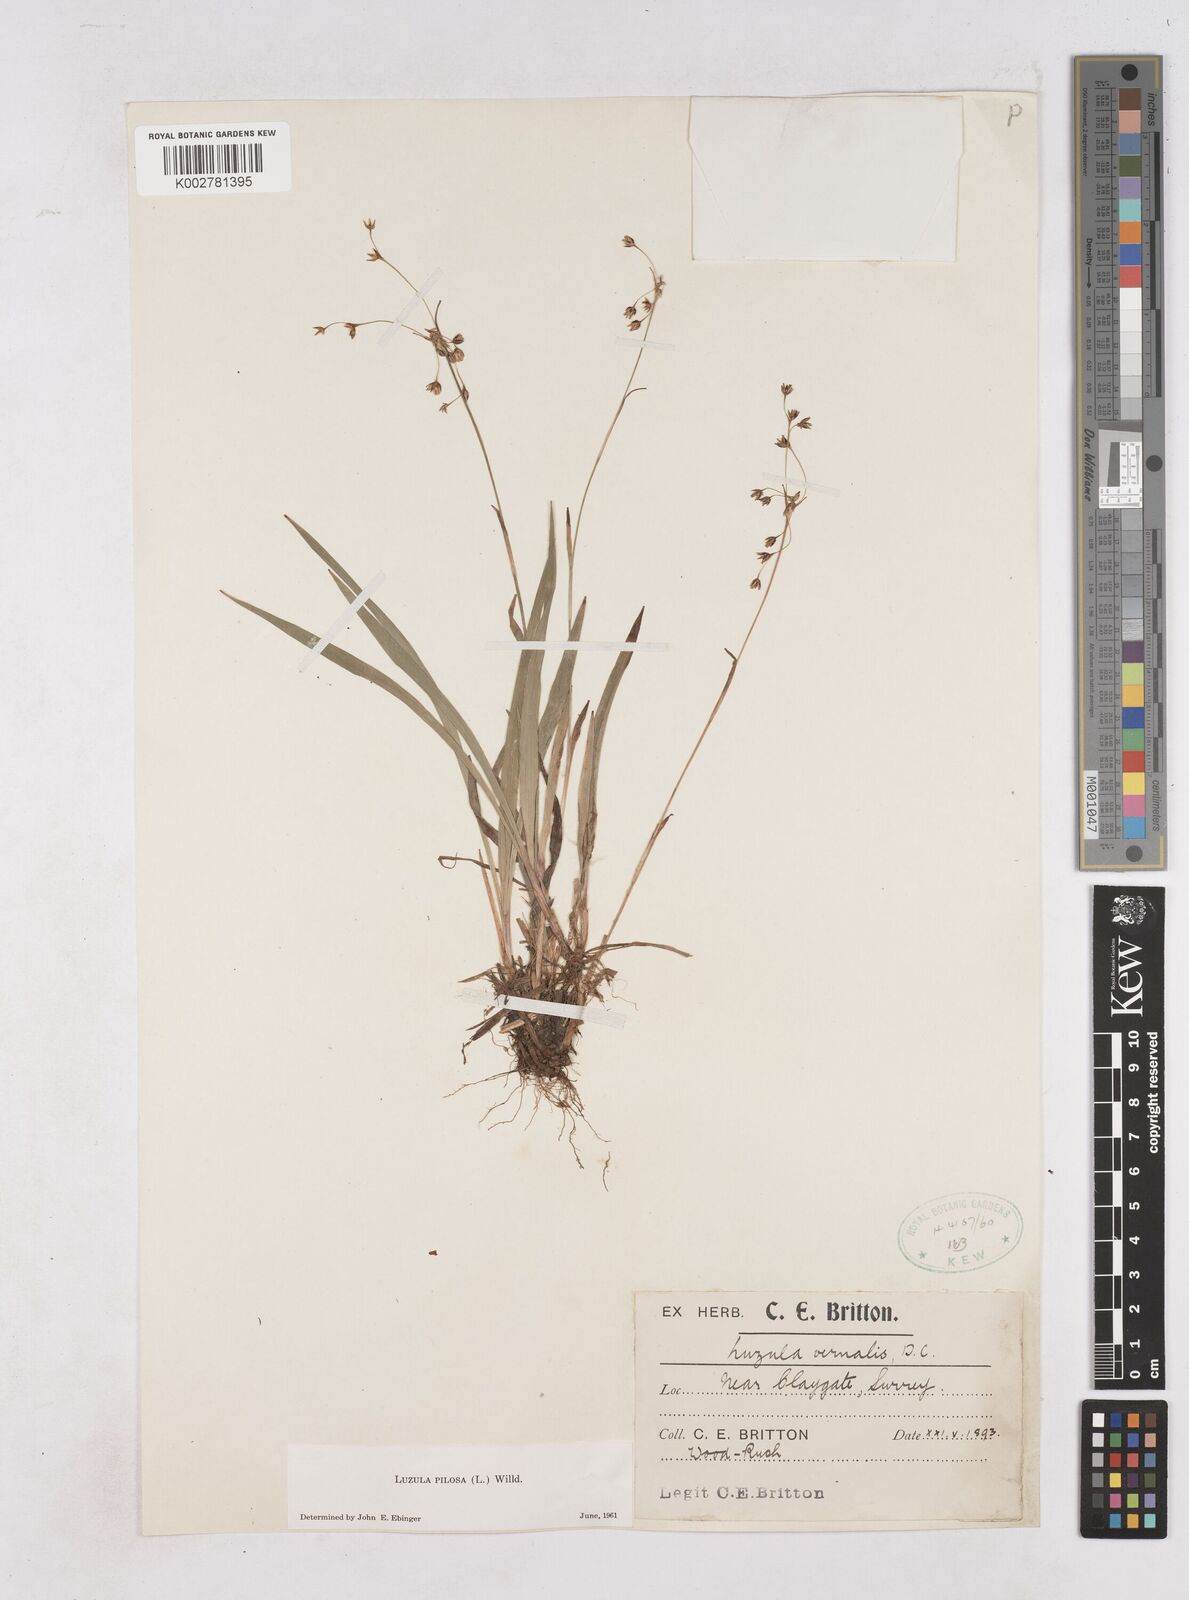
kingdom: Plantae
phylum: Tracheophyta
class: Liliopsida
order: Poales
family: Juncaceae
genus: Luzula
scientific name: Luzula pilosa
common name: Hairy wood-rush
